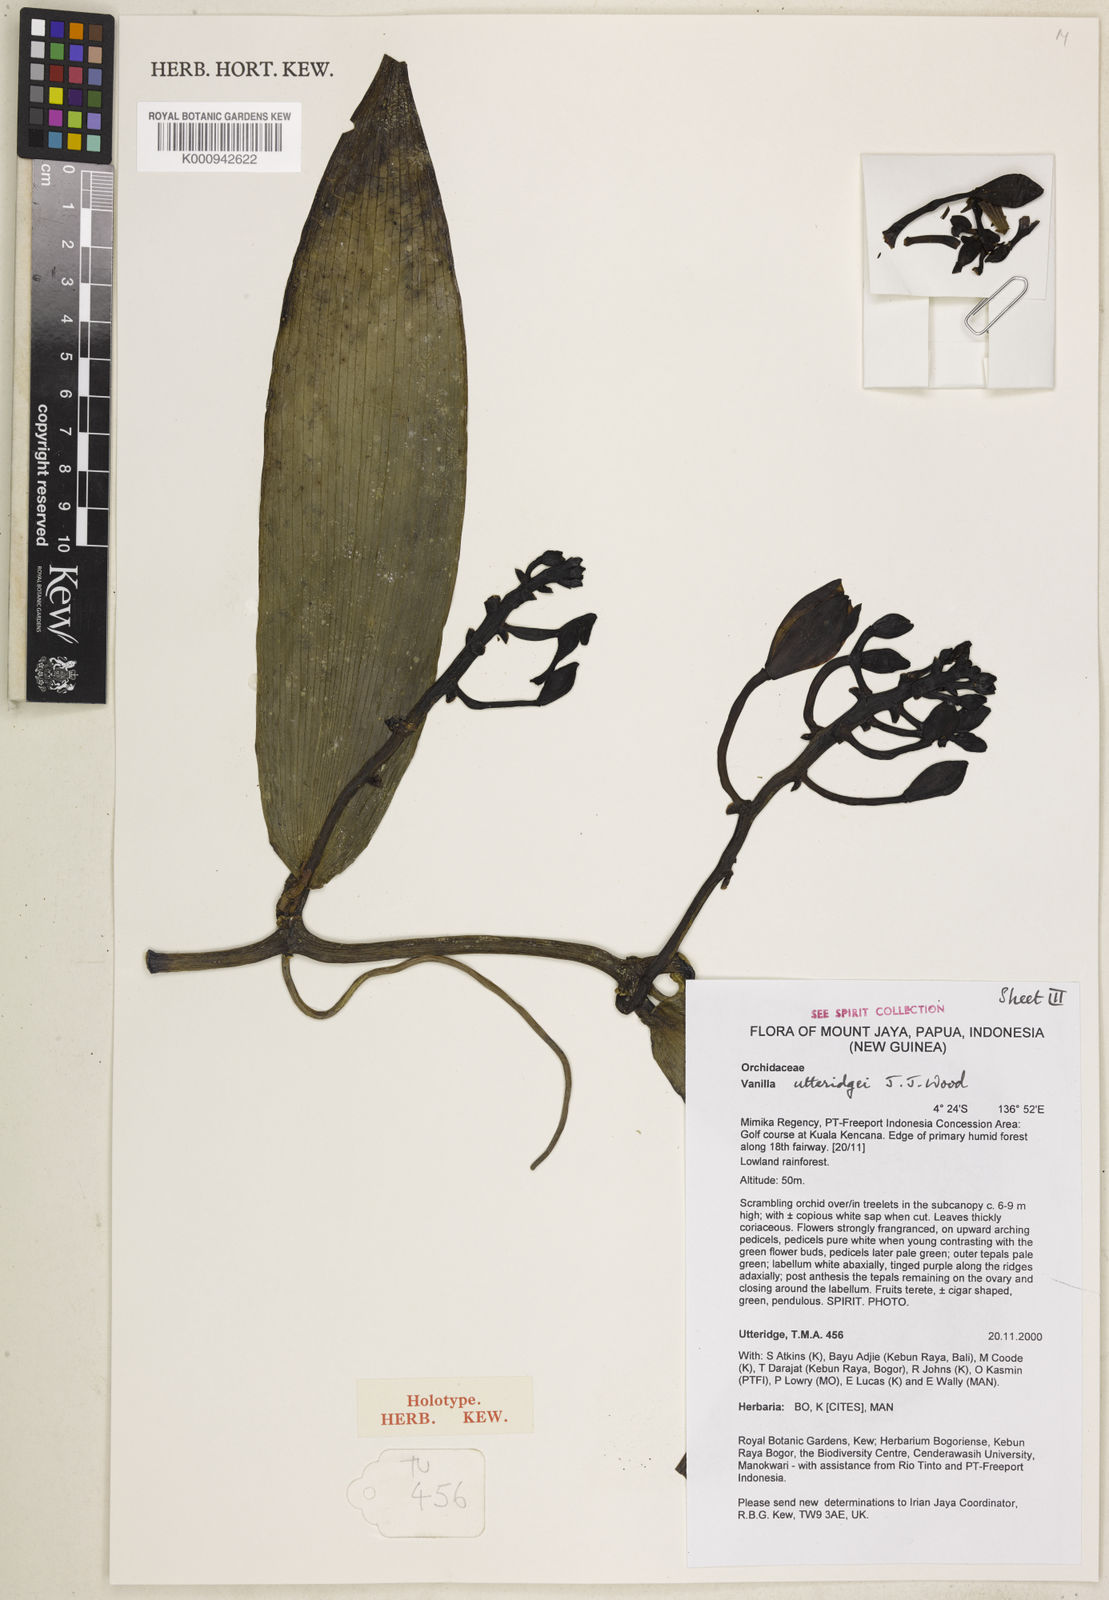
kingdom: Plantae
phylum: Tracheophyta
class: Liliopsida
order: Asparagales
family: Orchidaceae
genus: Vanilla
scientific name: Vanilla utteridgei
